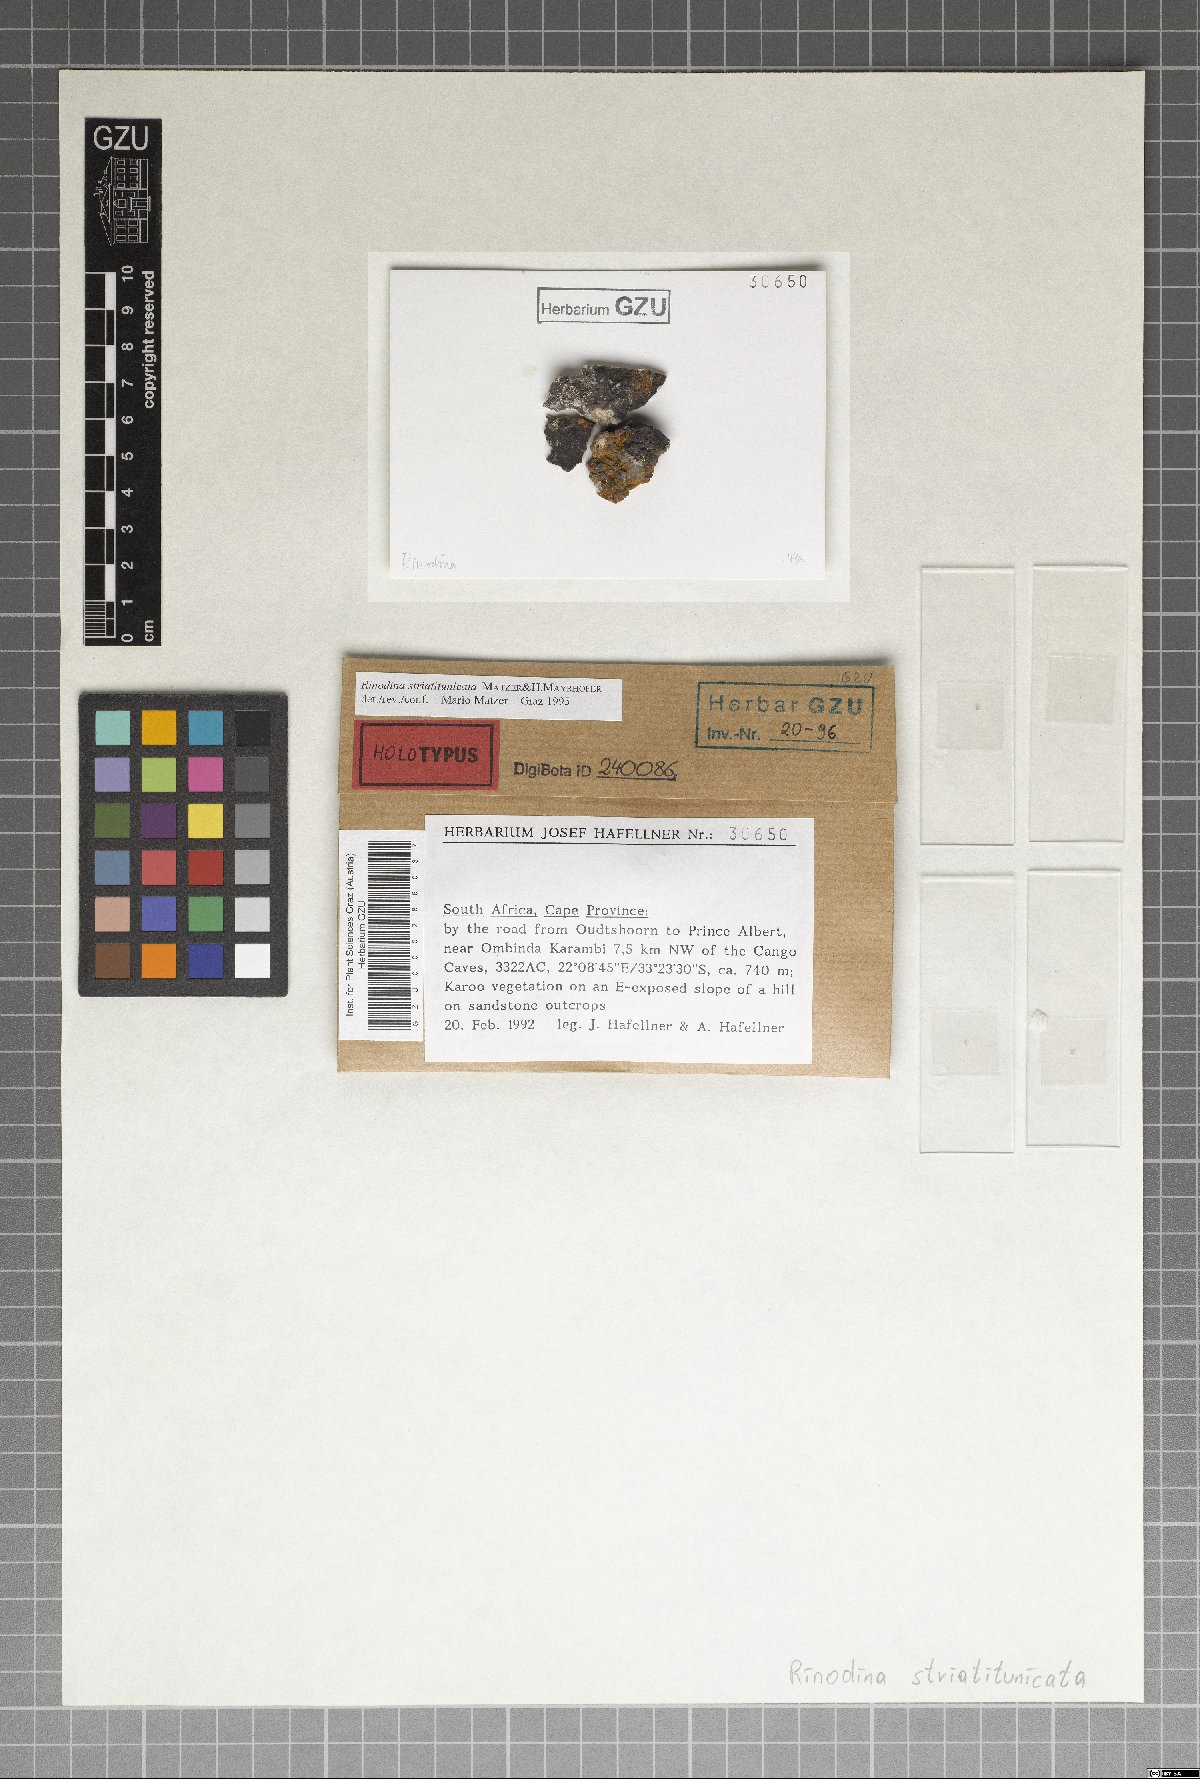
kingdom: Fungi
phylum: Ascomycota
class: Lecanoromycetes
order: Caliciales
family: Physciaceae
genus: Rinodina
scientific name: Rinodina striatitunicata
